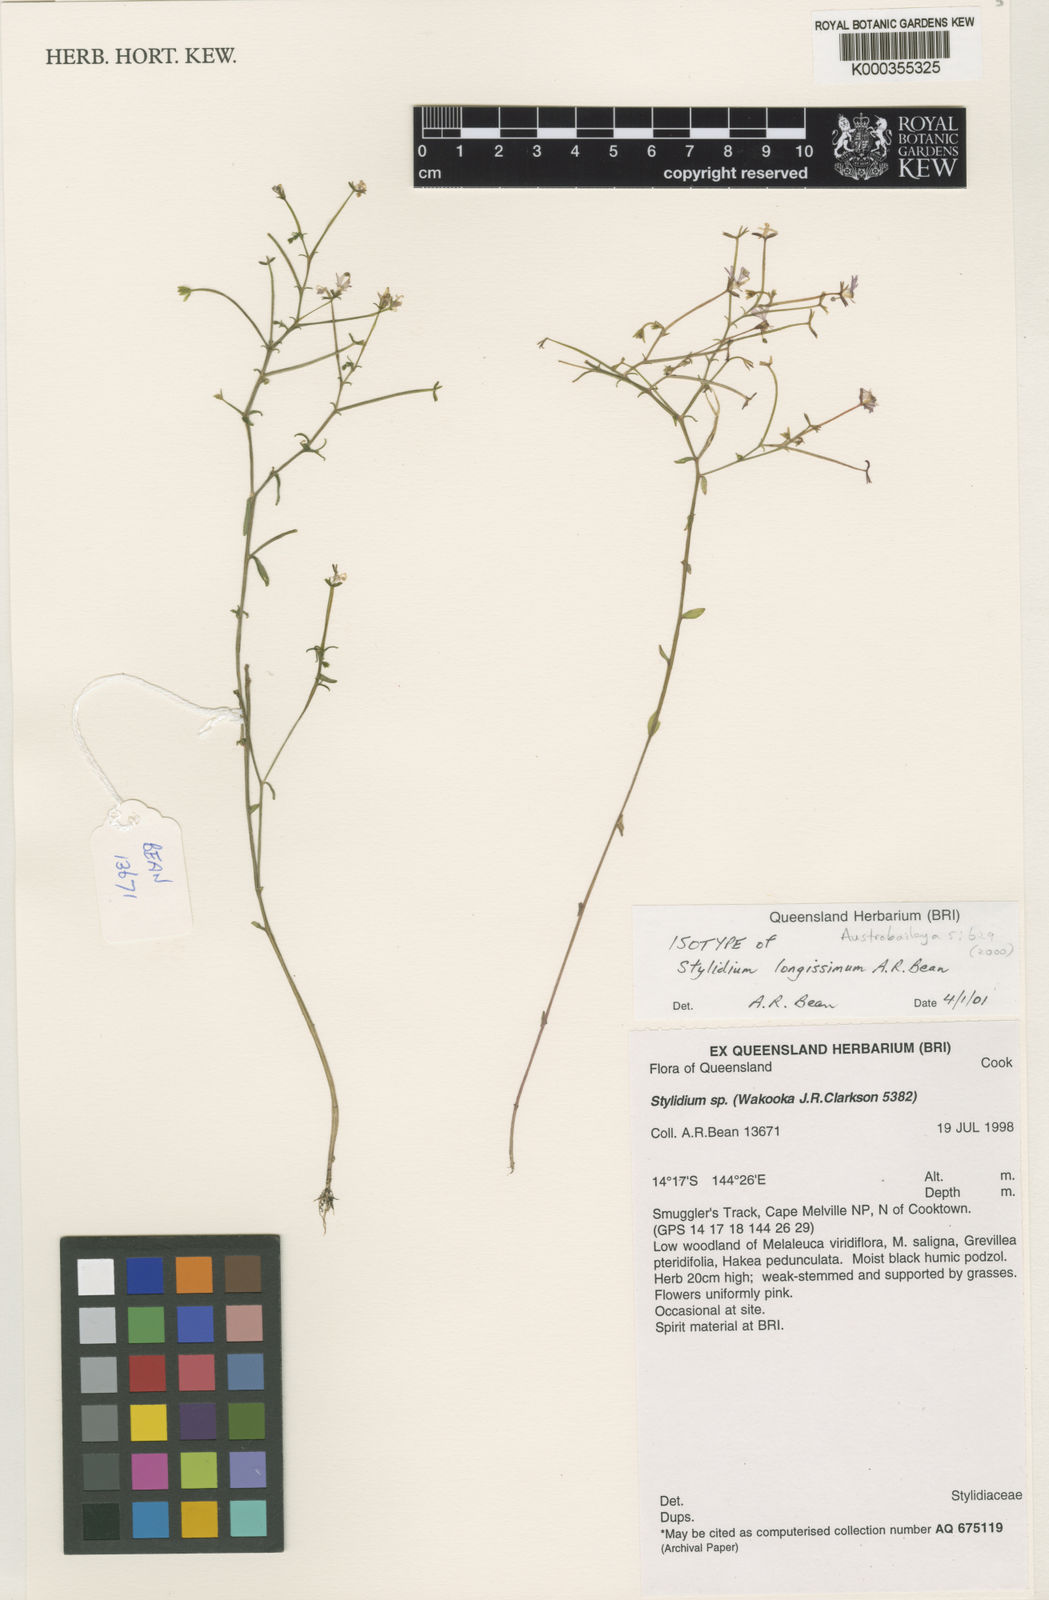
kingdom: Plantae
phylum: Tracheophyta
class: Magnoliopsida
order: Asterales
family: Stylidiaceae
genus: Stylidium
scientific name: Stylidium longissimum
